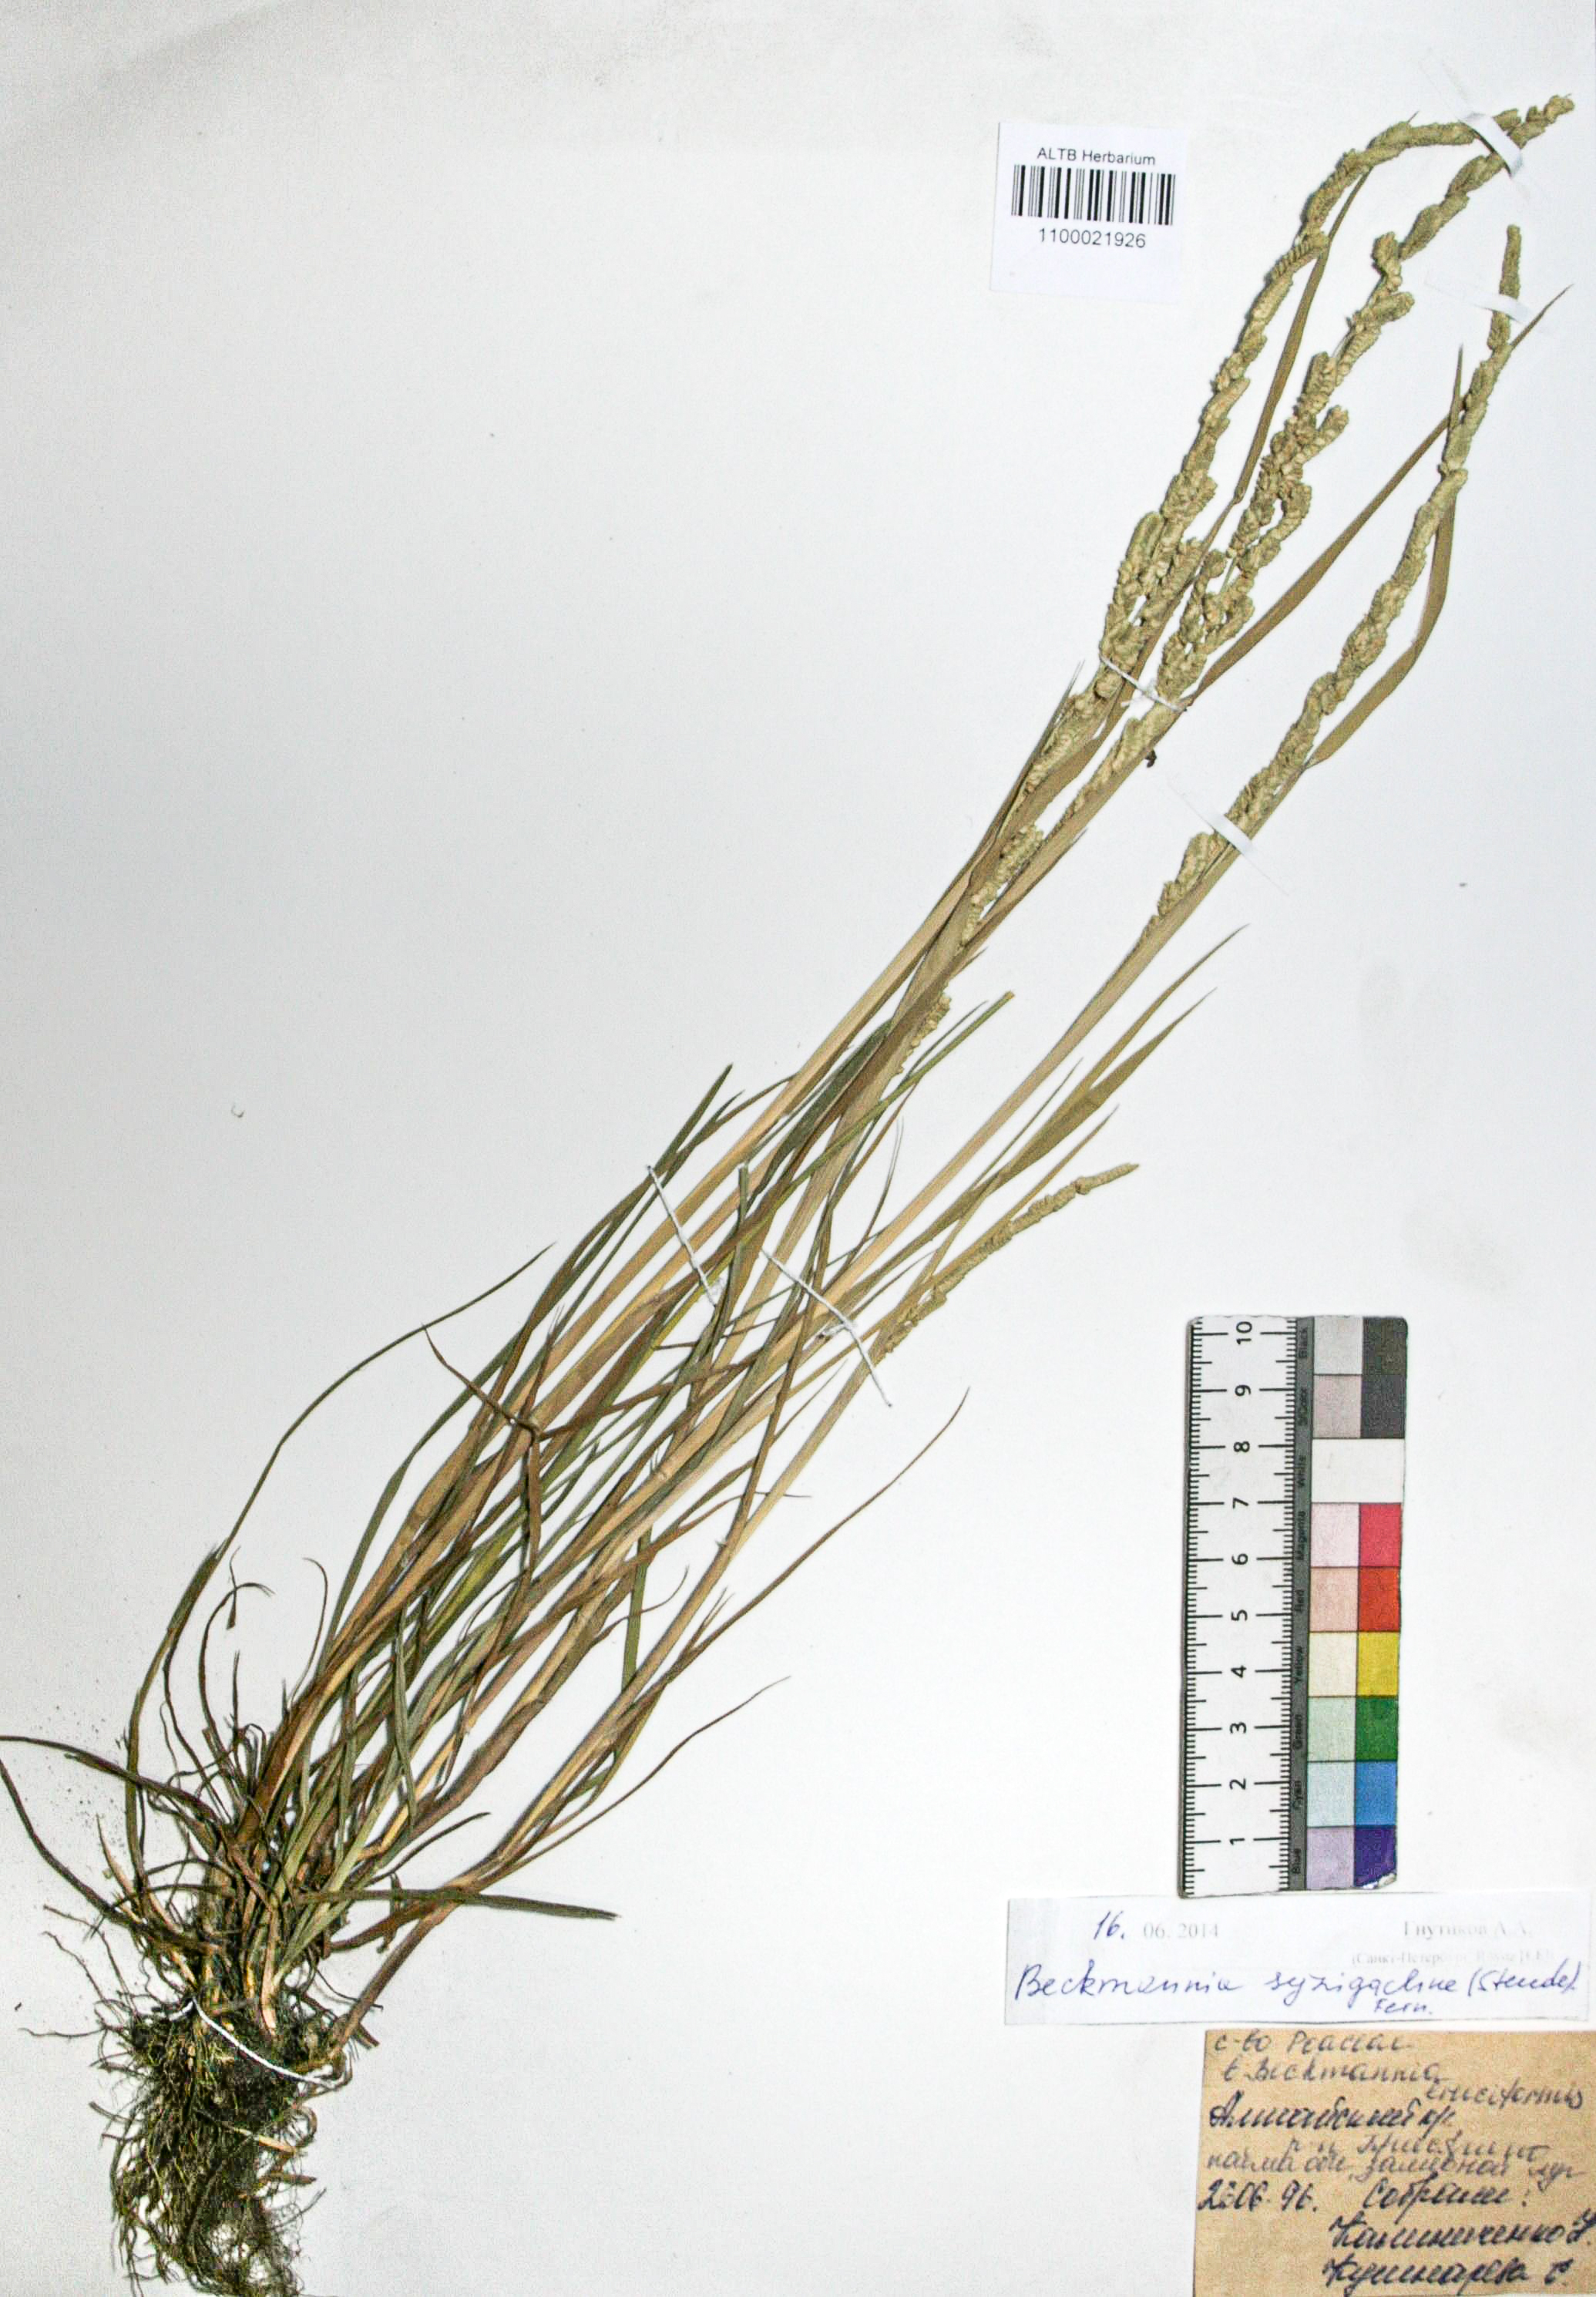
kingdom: Plantae
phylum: Tracheophyta
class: Liliopsida
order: Poales
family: Poaceae
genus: Beckmannia
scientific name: Beckmannia syzigachne
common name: American slough-grass
